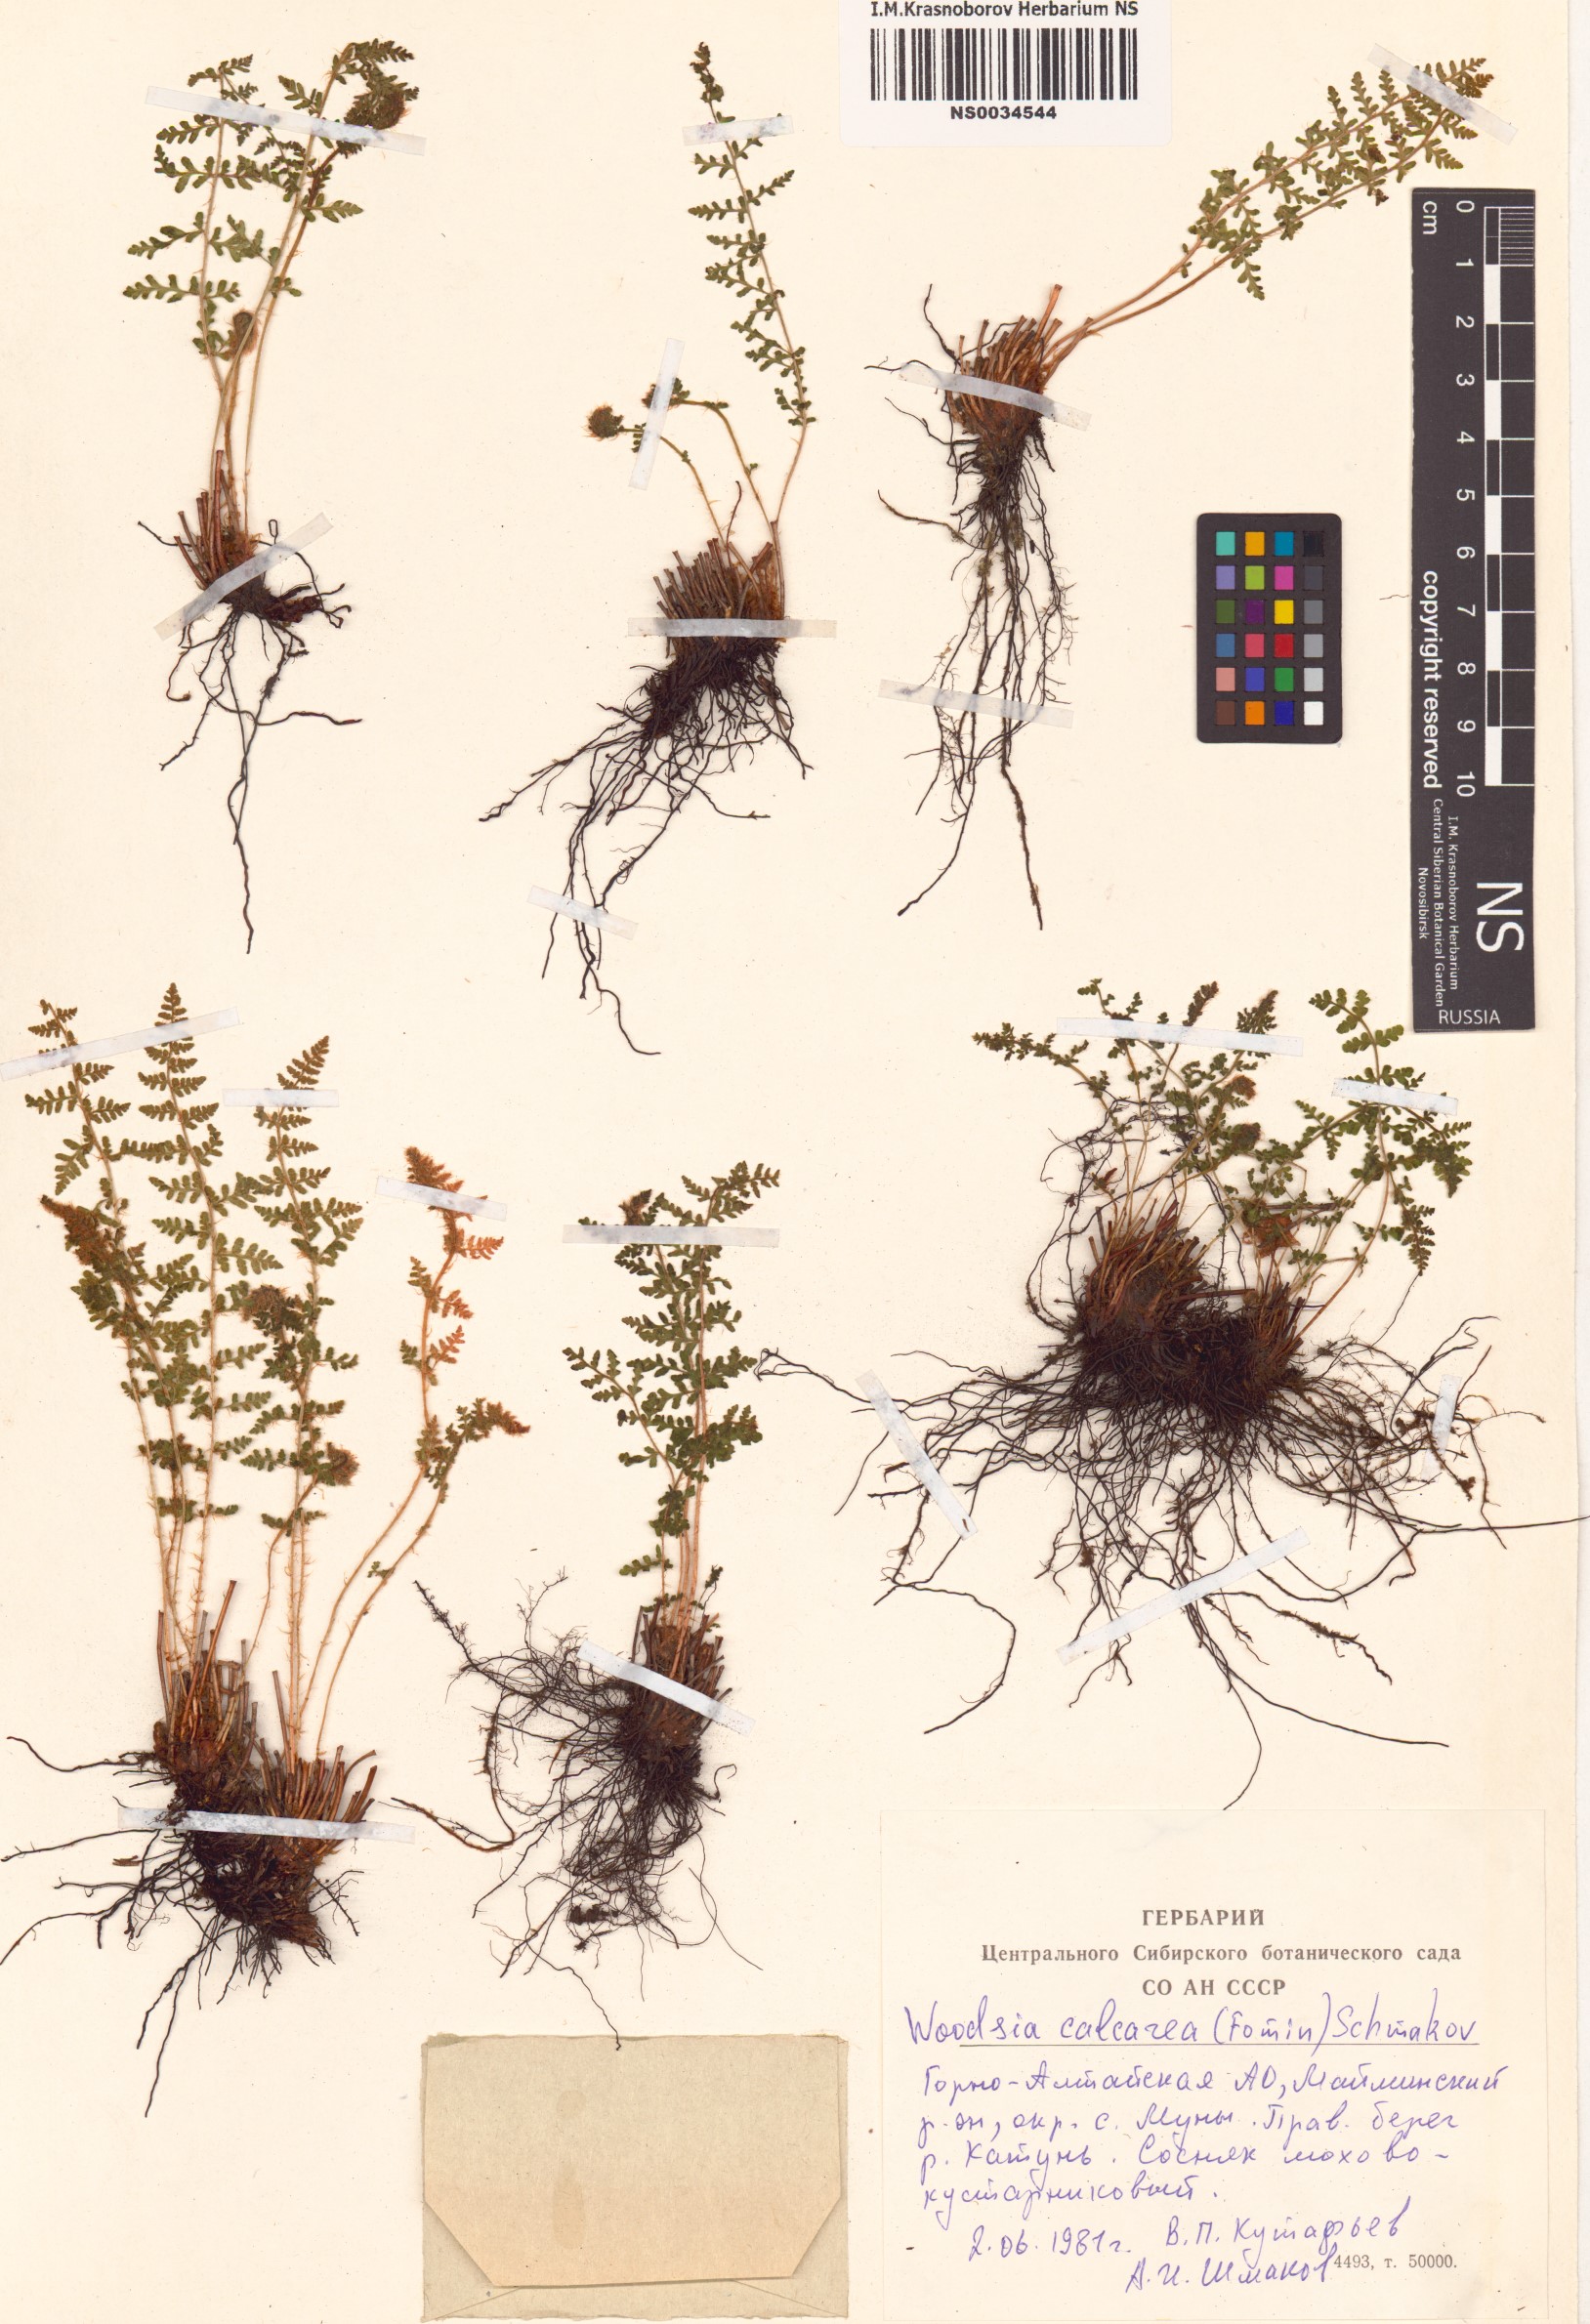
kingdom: Plantae
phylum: Tracheophyta
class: Polypodiopsida
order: Polypodiales
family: Woodsiaceae
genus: Woodsia
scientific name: Woodsia calcarea
